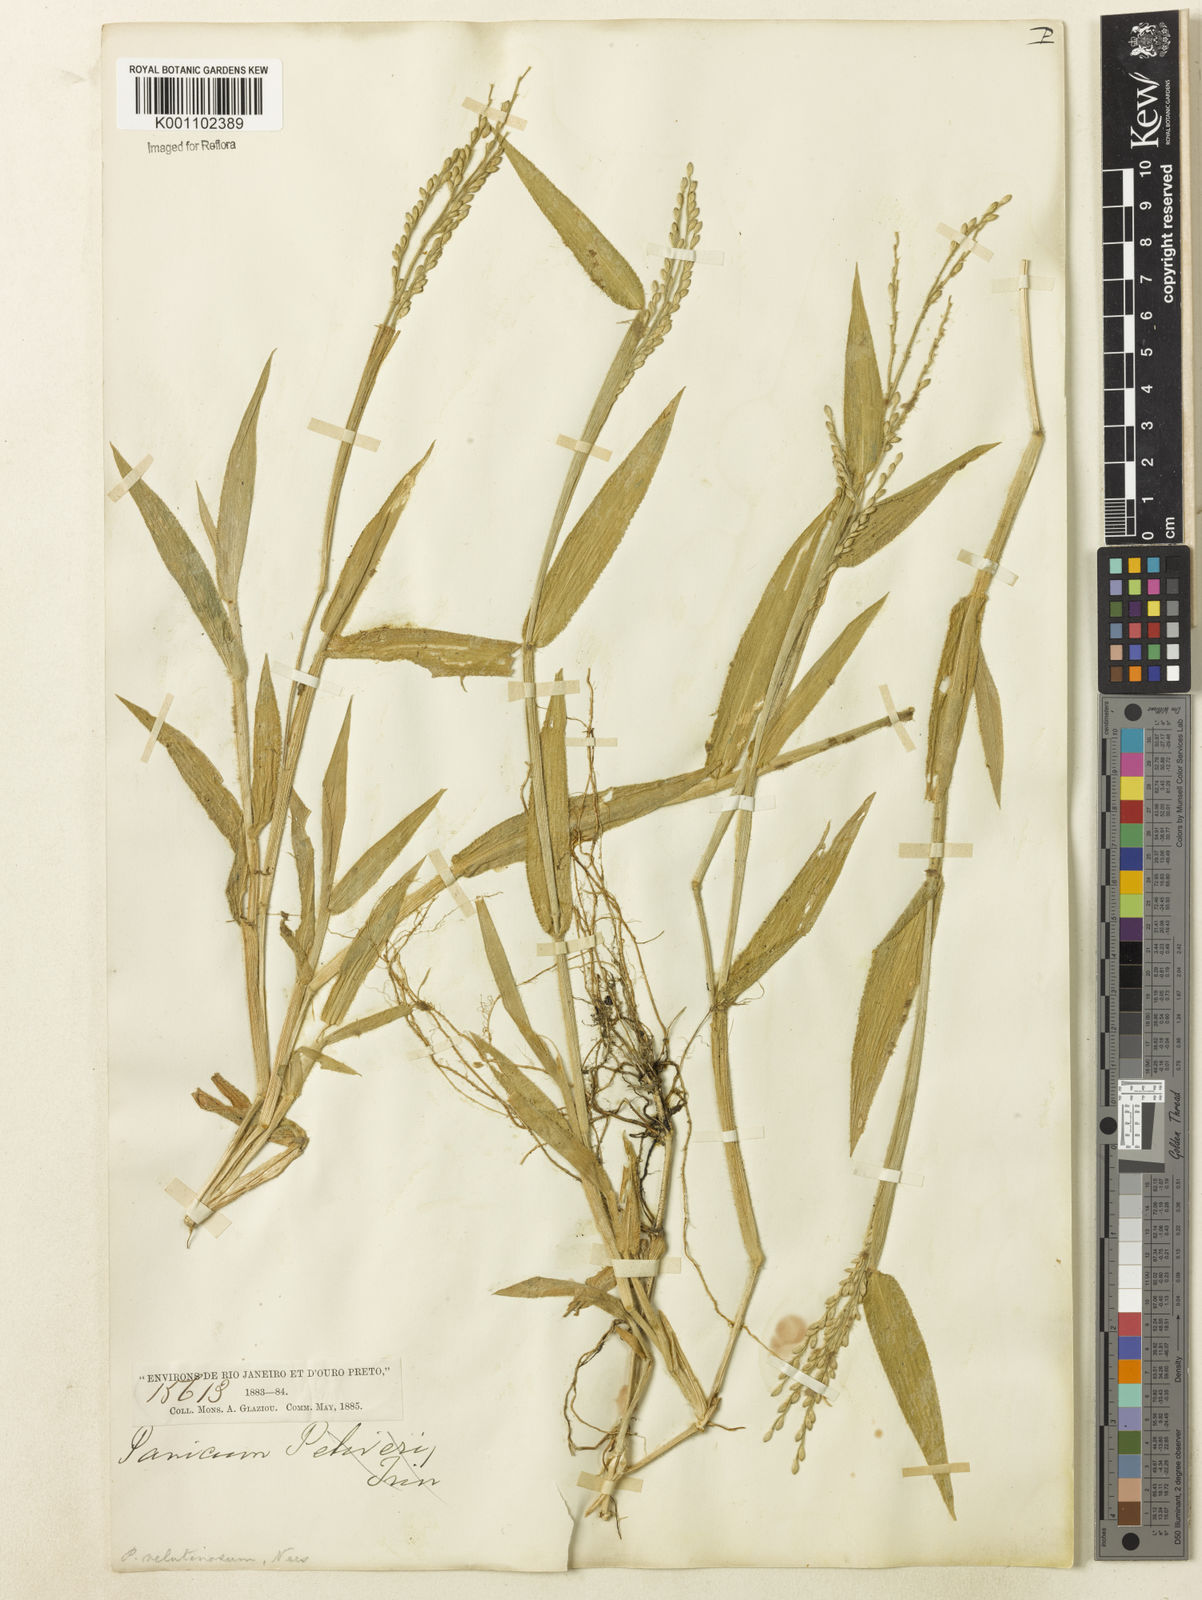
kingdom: Plantae
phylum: Tracheophyta
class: Liliopsida
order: Poales
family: Poaceae
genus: Urochloa
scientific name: Urochloa mollis
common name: Grass
